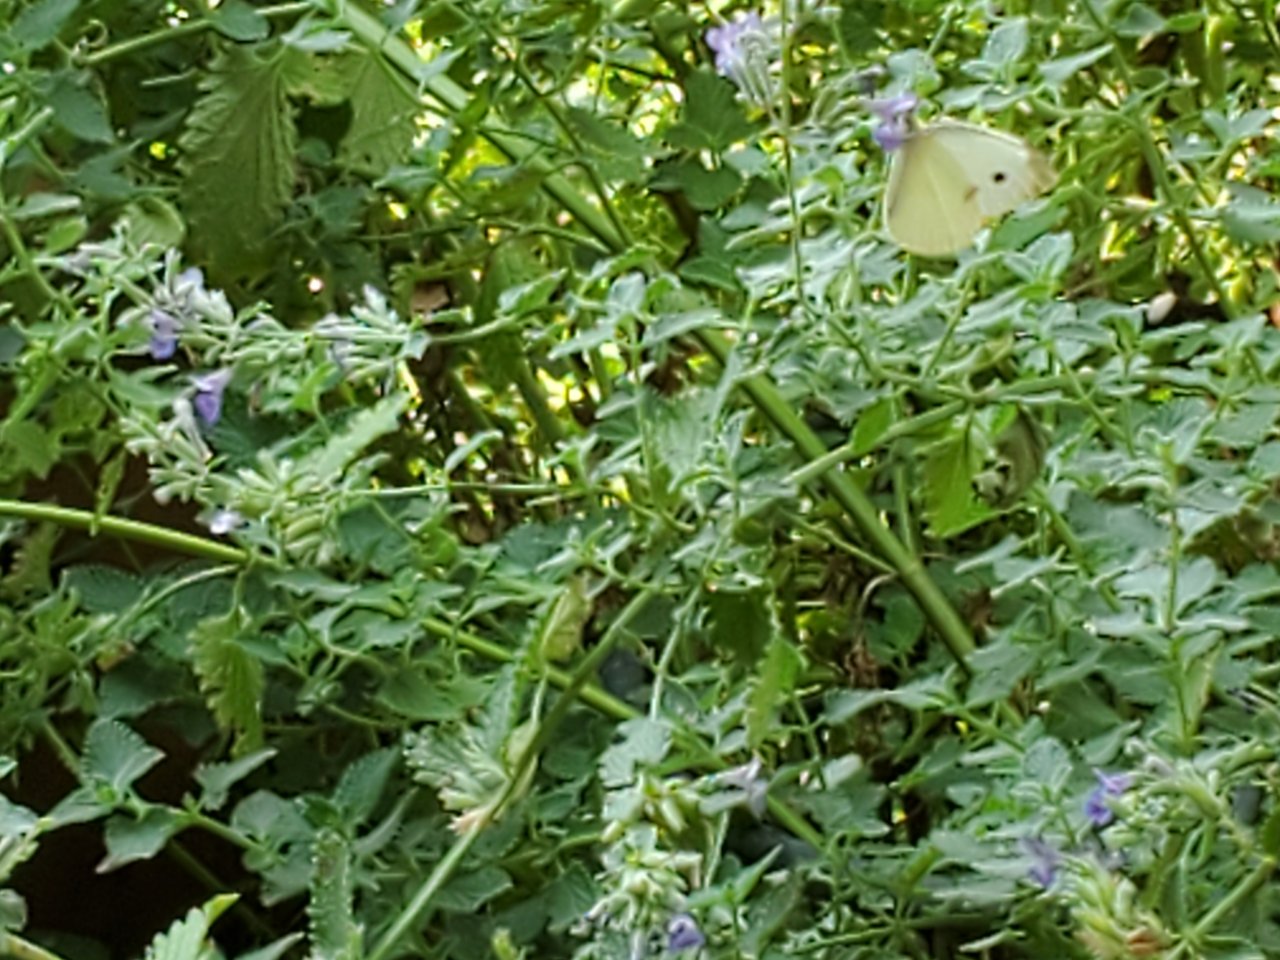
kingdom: Animalia
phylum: Arthropoda
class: Insecta
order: Lepidoptera
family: Pieridae
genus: Pieris
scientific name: Pieris rapae
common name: Cabbage White
